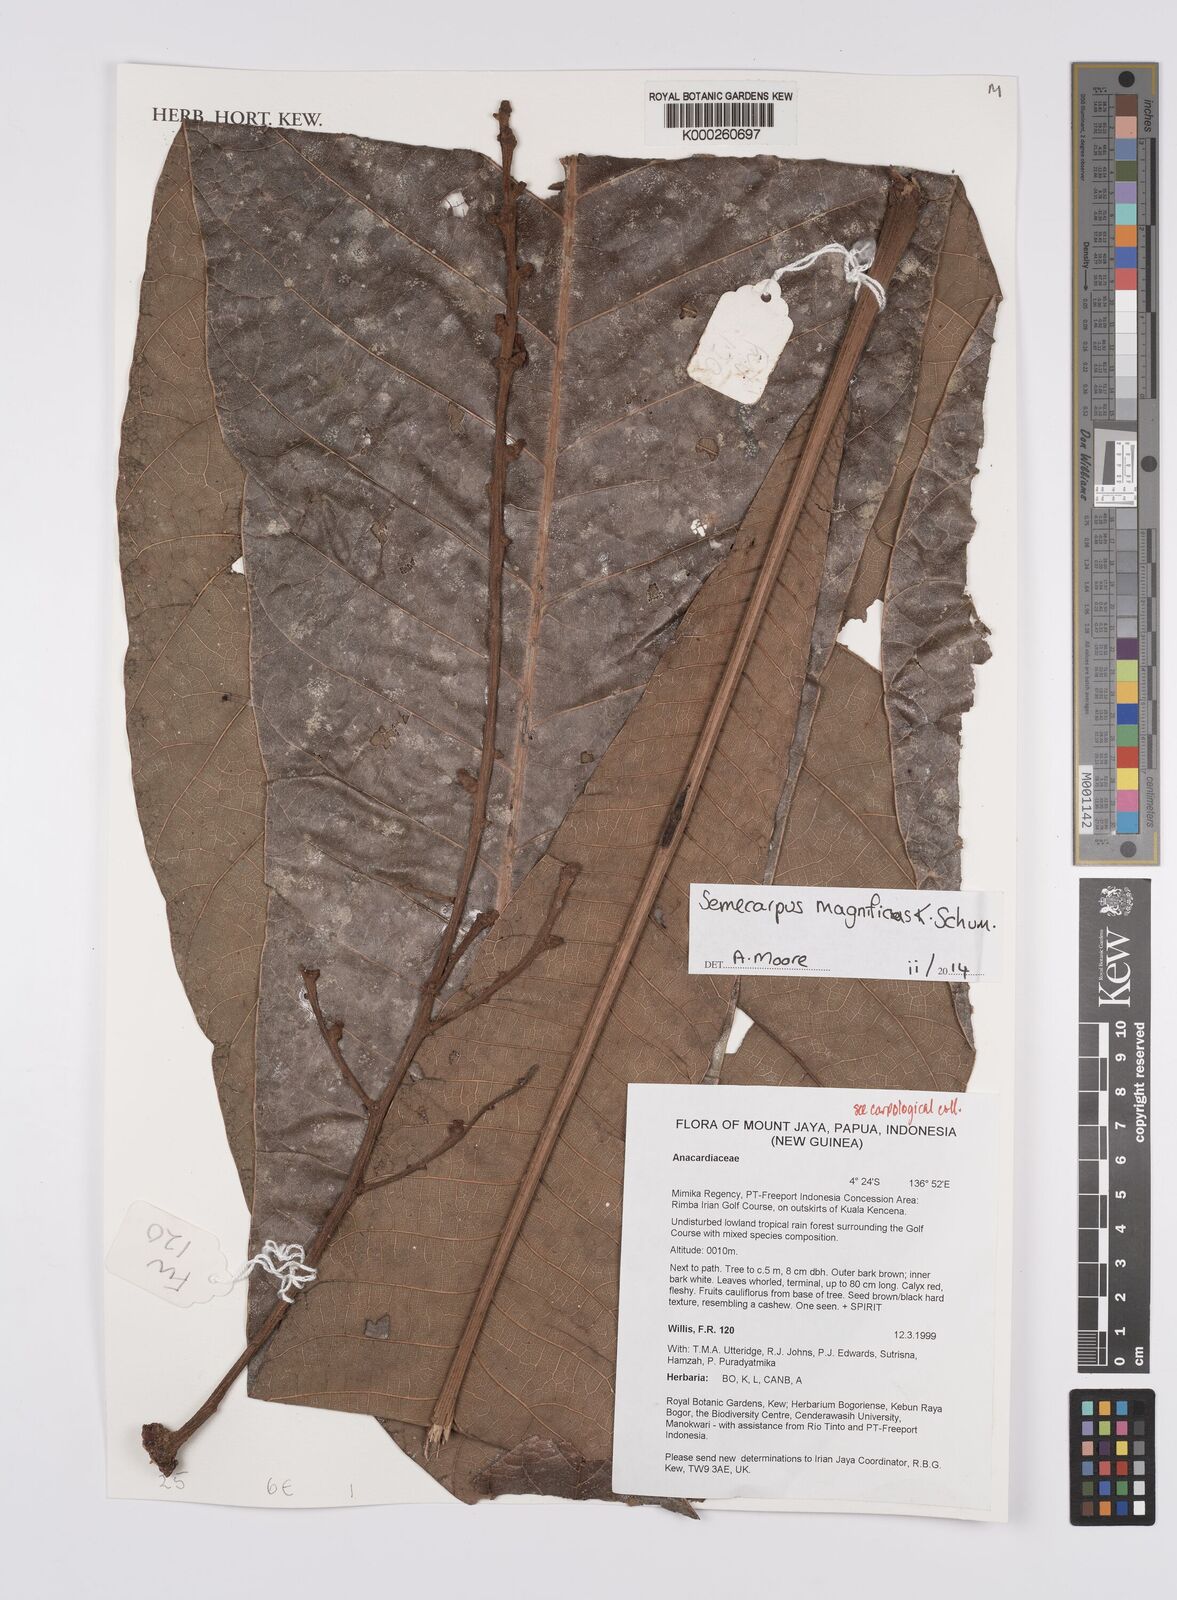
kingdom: Plantae
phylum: Tracheophyta
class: Magnoliopsida
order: Sapindales
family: Anacardiaceae
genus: Semecarpus
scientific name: Semecarpus magnificus
